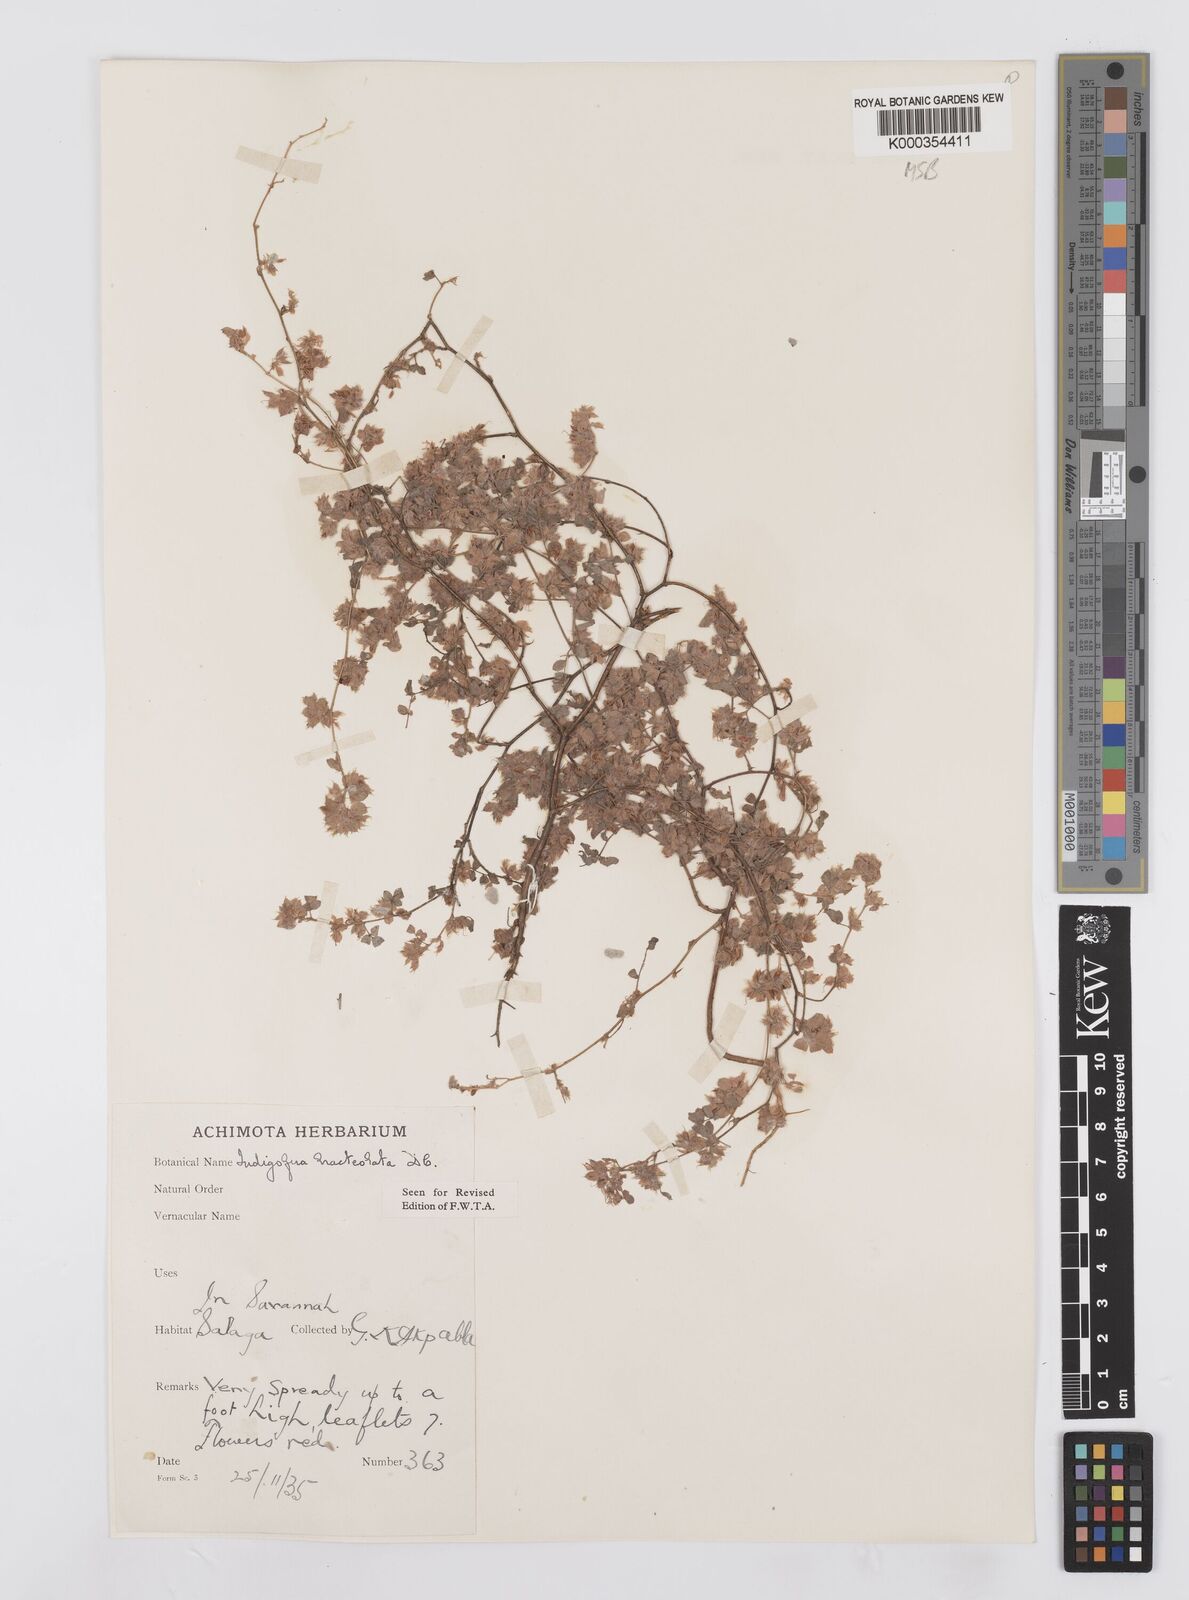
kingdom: Plantae
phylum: Tracheophyta
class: Magnoliopsida
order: Fabales
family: Fabaceae
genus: Indigofera
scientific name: Indigofera bracteolata
